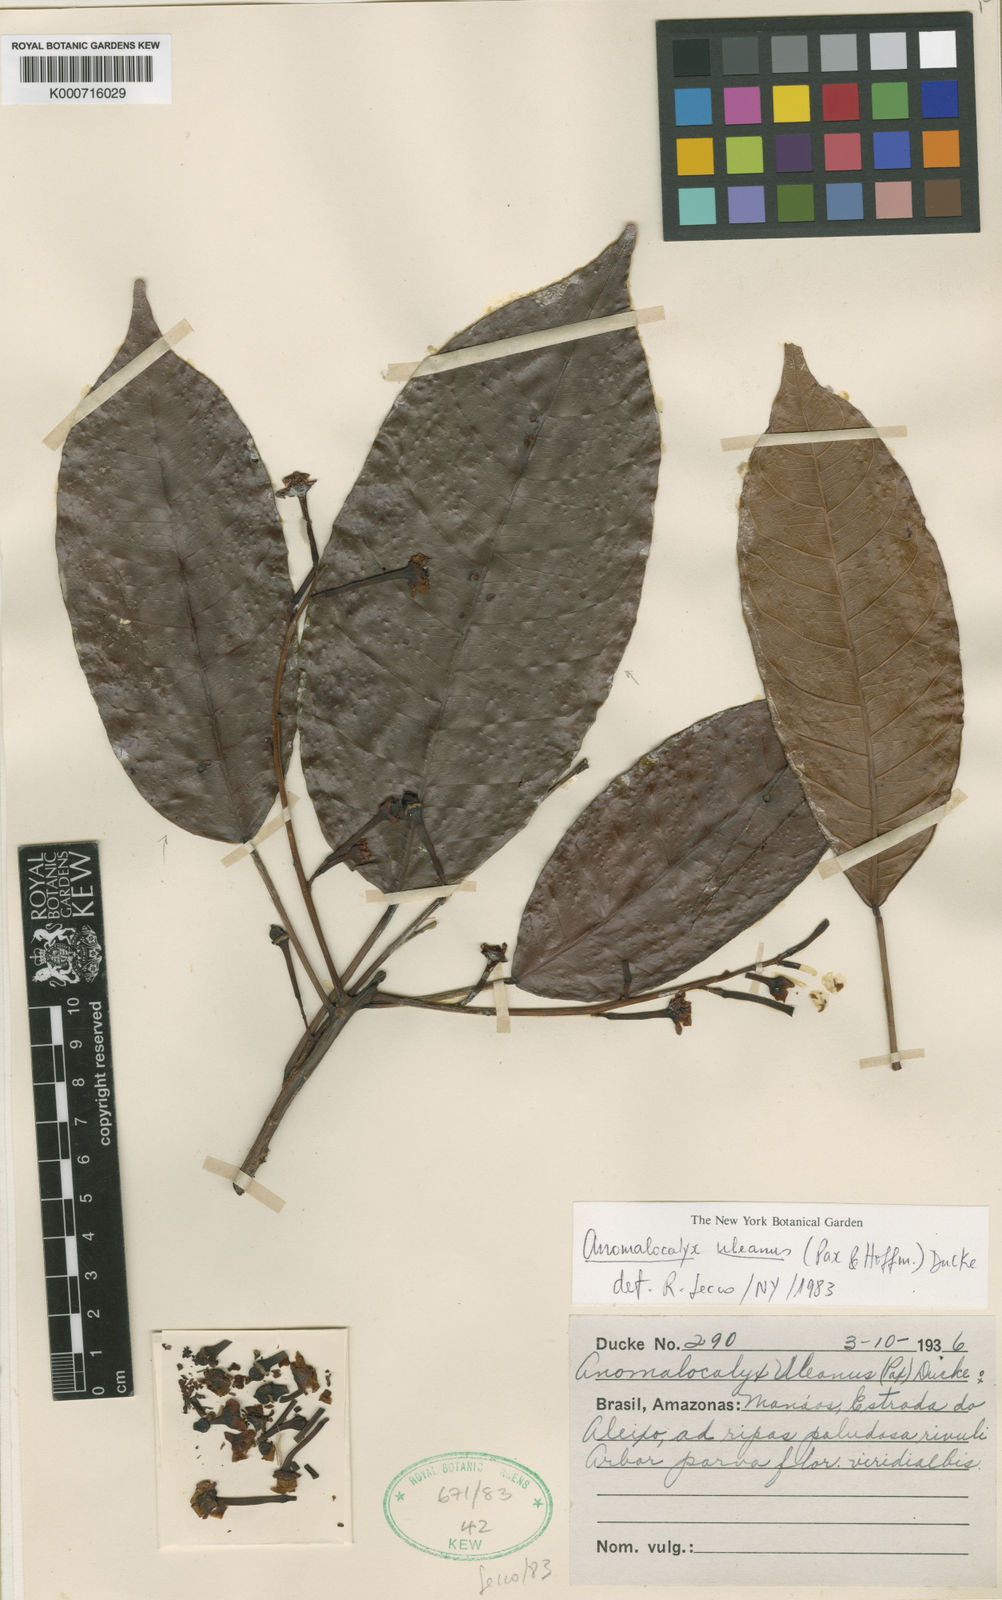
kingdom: Plantae
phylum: Tracheophyta
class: Magnoliopsida
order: Malpighiales
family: Euphorbiaceae
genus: Dodecastigma
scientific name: Dodecastigma uleanum
